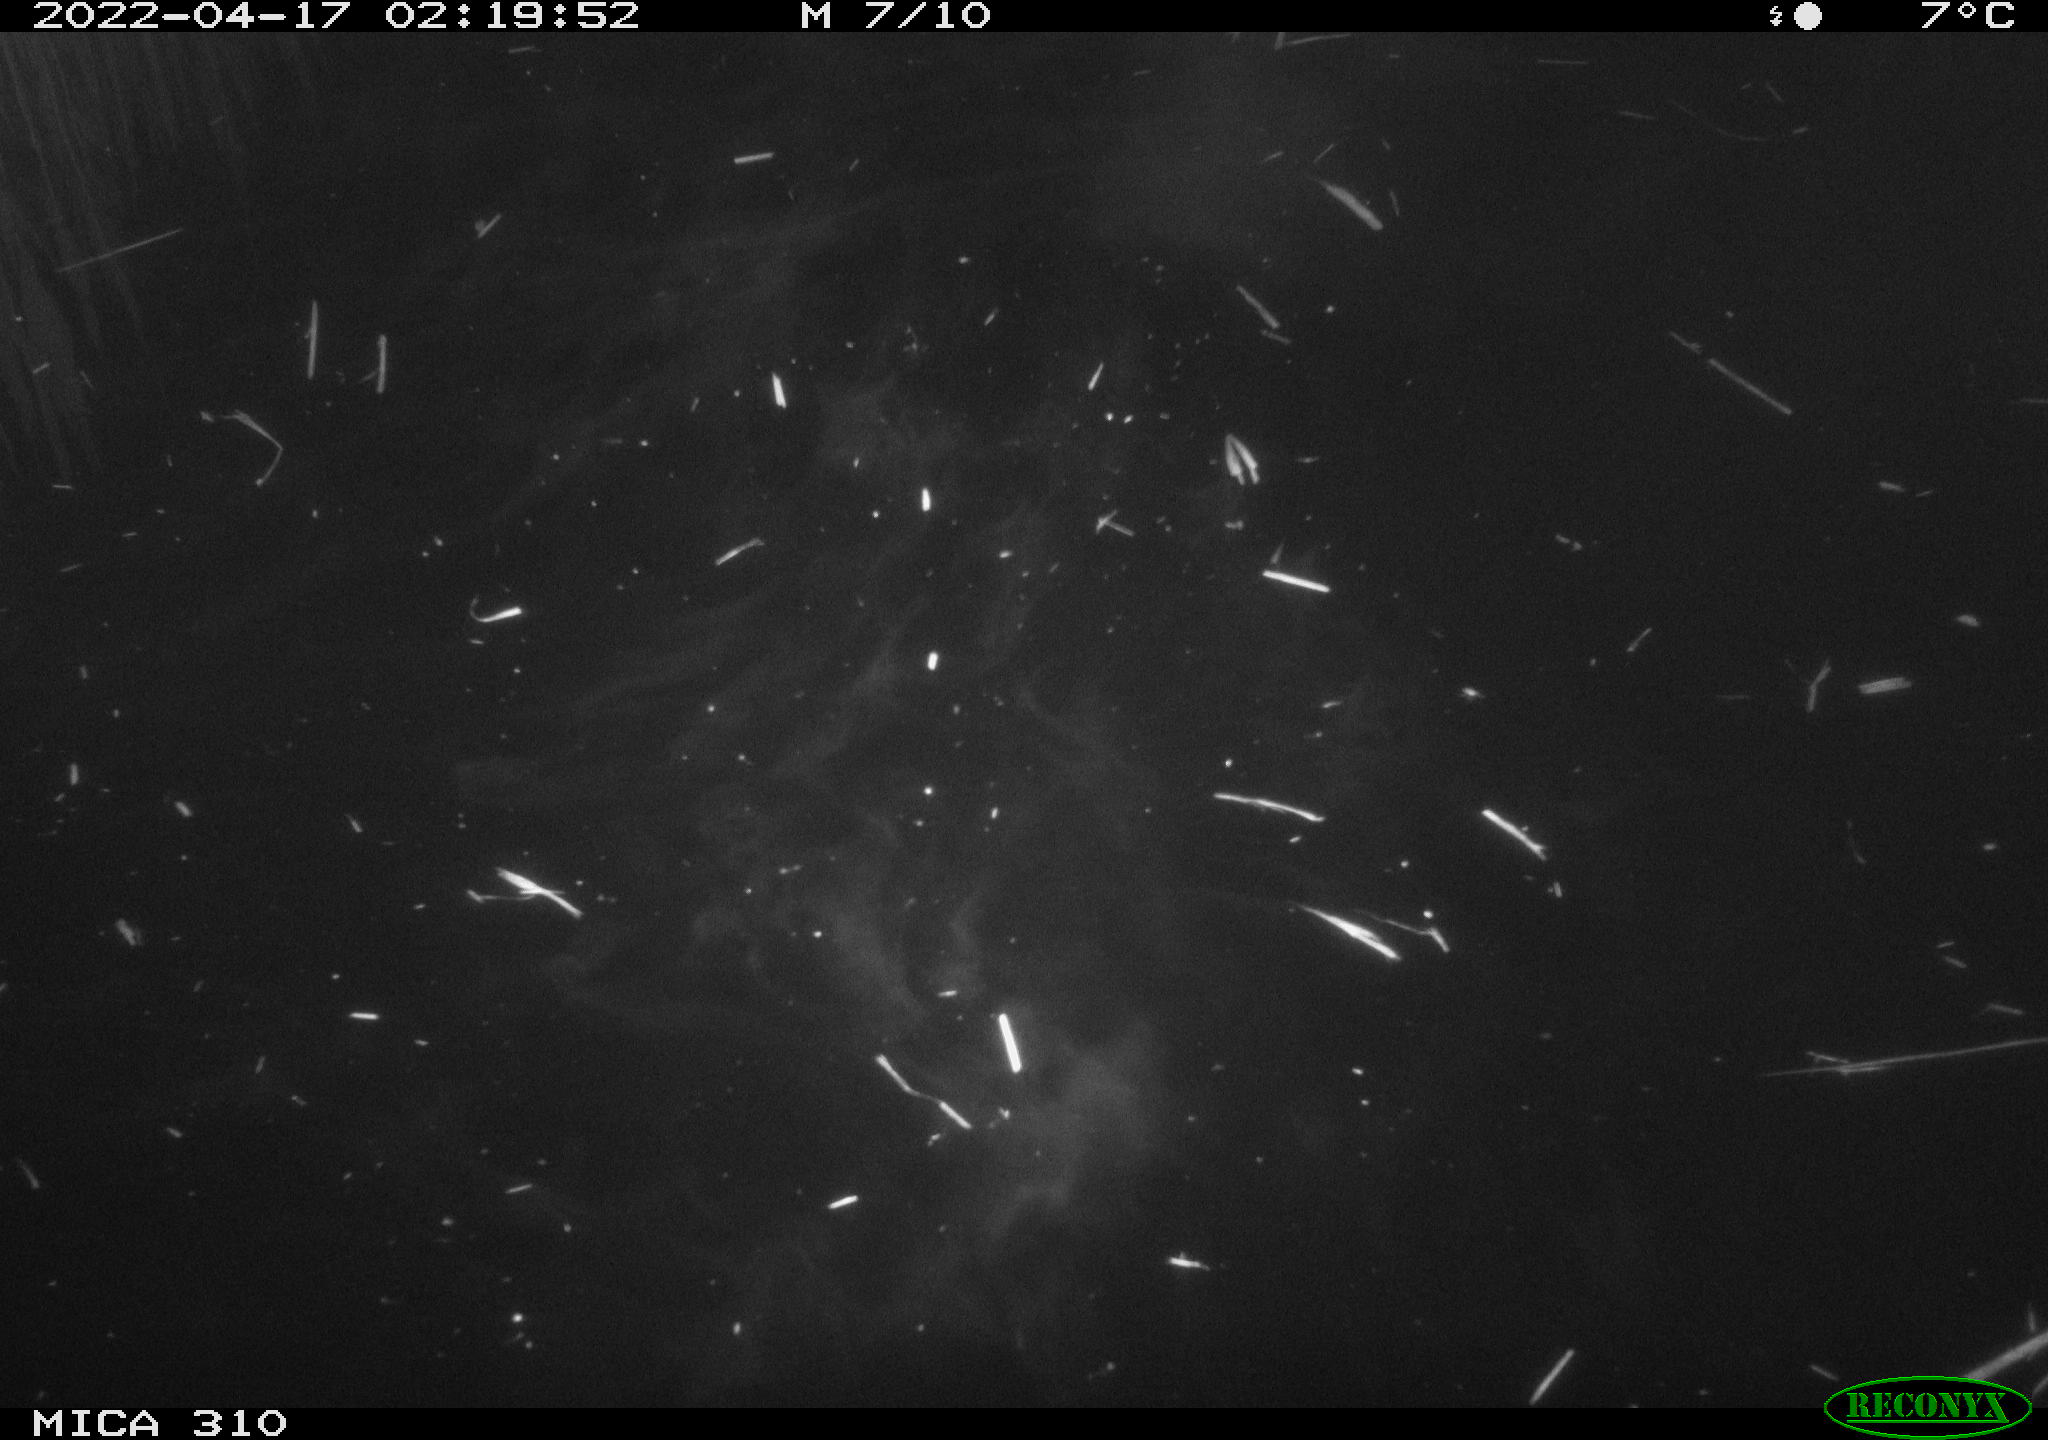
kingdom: Animalia
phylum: Chordata
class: Aves
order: Anseriformes
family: Anatidae
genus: Anas
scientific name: Anas platyrhynchos
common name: Mallard
